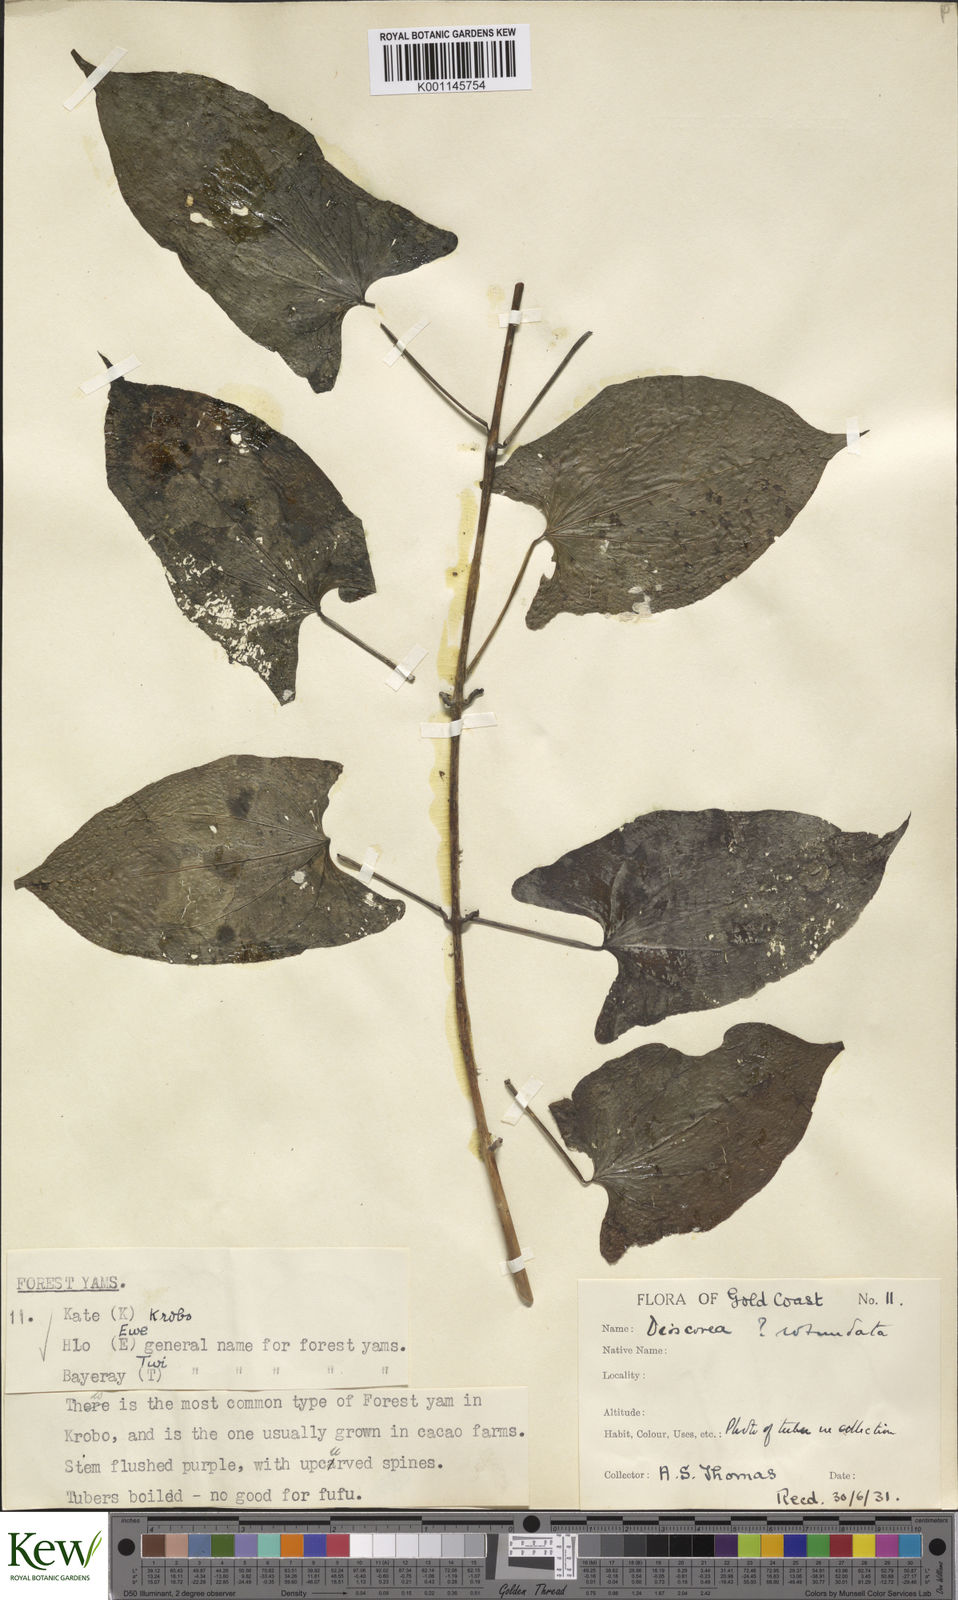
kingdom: Plantae
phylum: Tracheophyta
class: Liliopsida
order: Dioscoreales
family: Dioscoreaceae
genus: Dioscorea
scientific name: Dioscorea cayenensis
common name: Attoto yam
